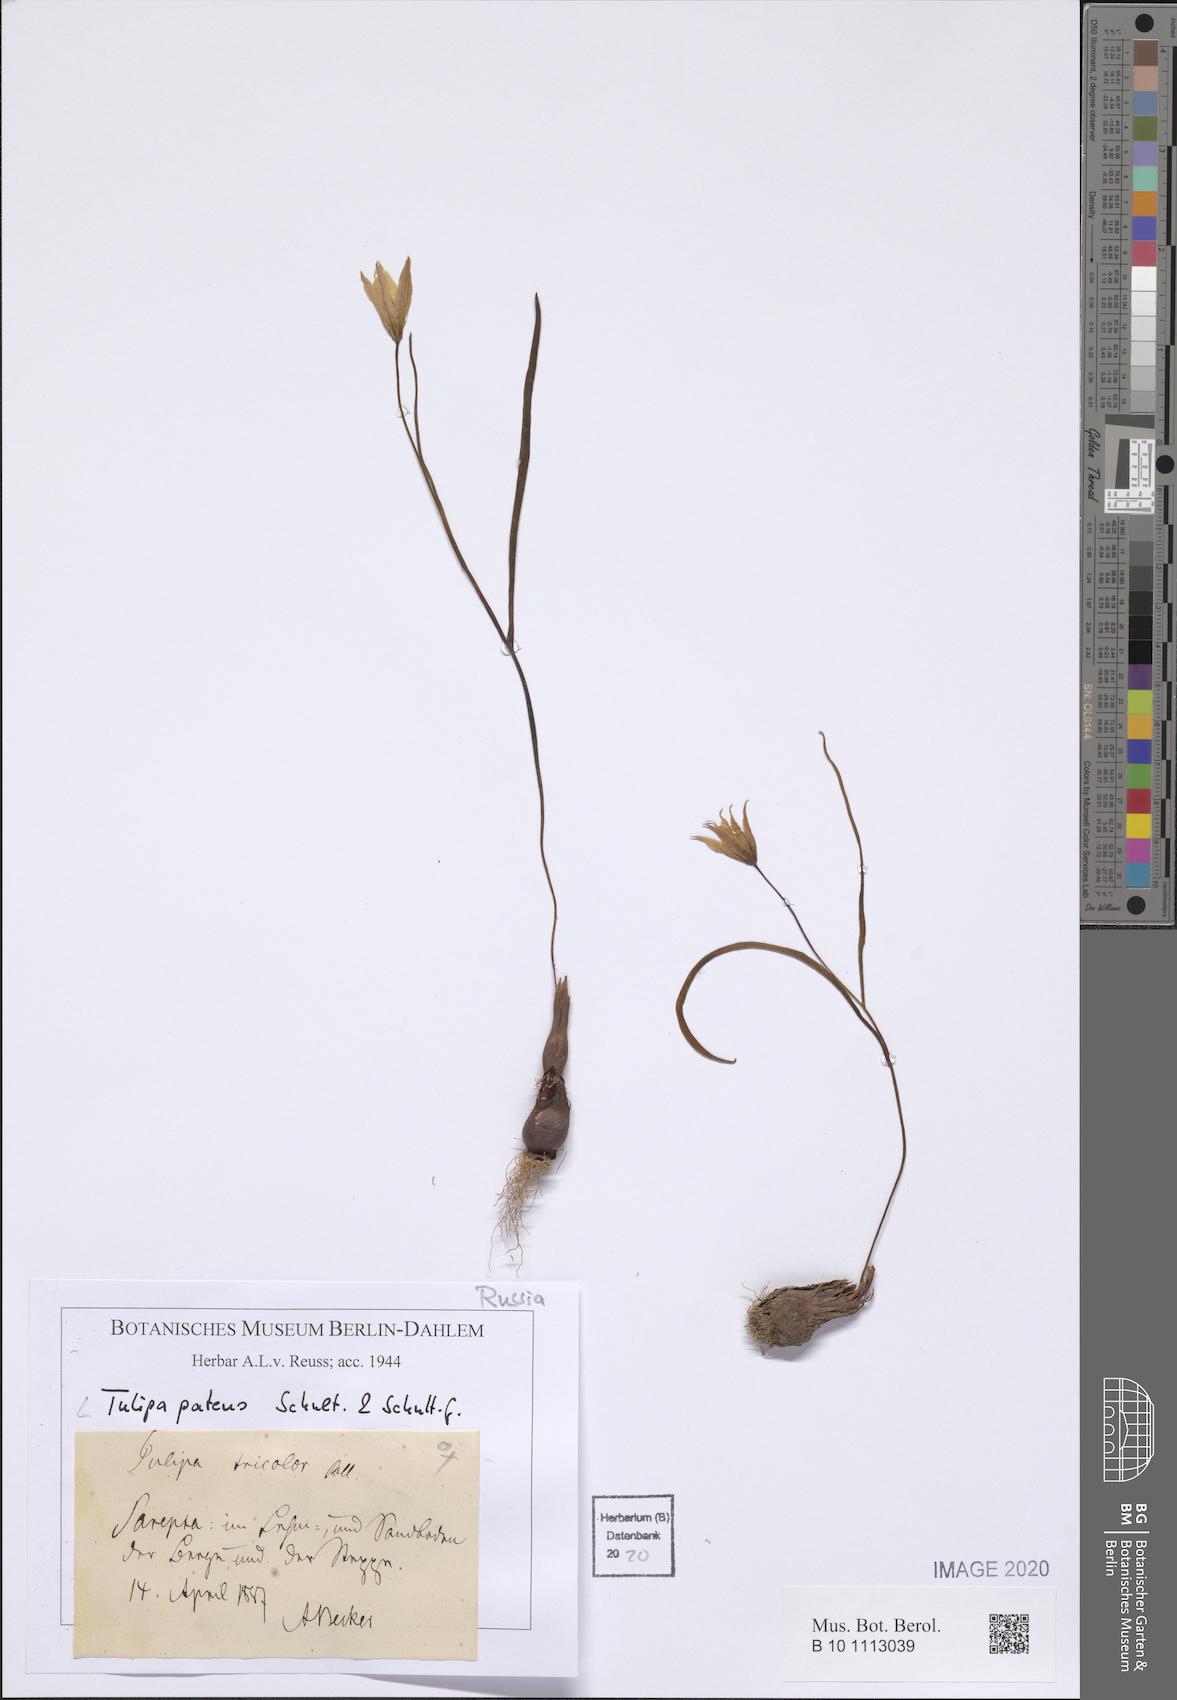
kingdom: Plantae
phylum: Tracheophyta
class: Liliopsida
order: Liliales
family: Liliaceae
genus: Tulipa
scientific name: Tulipa patens
